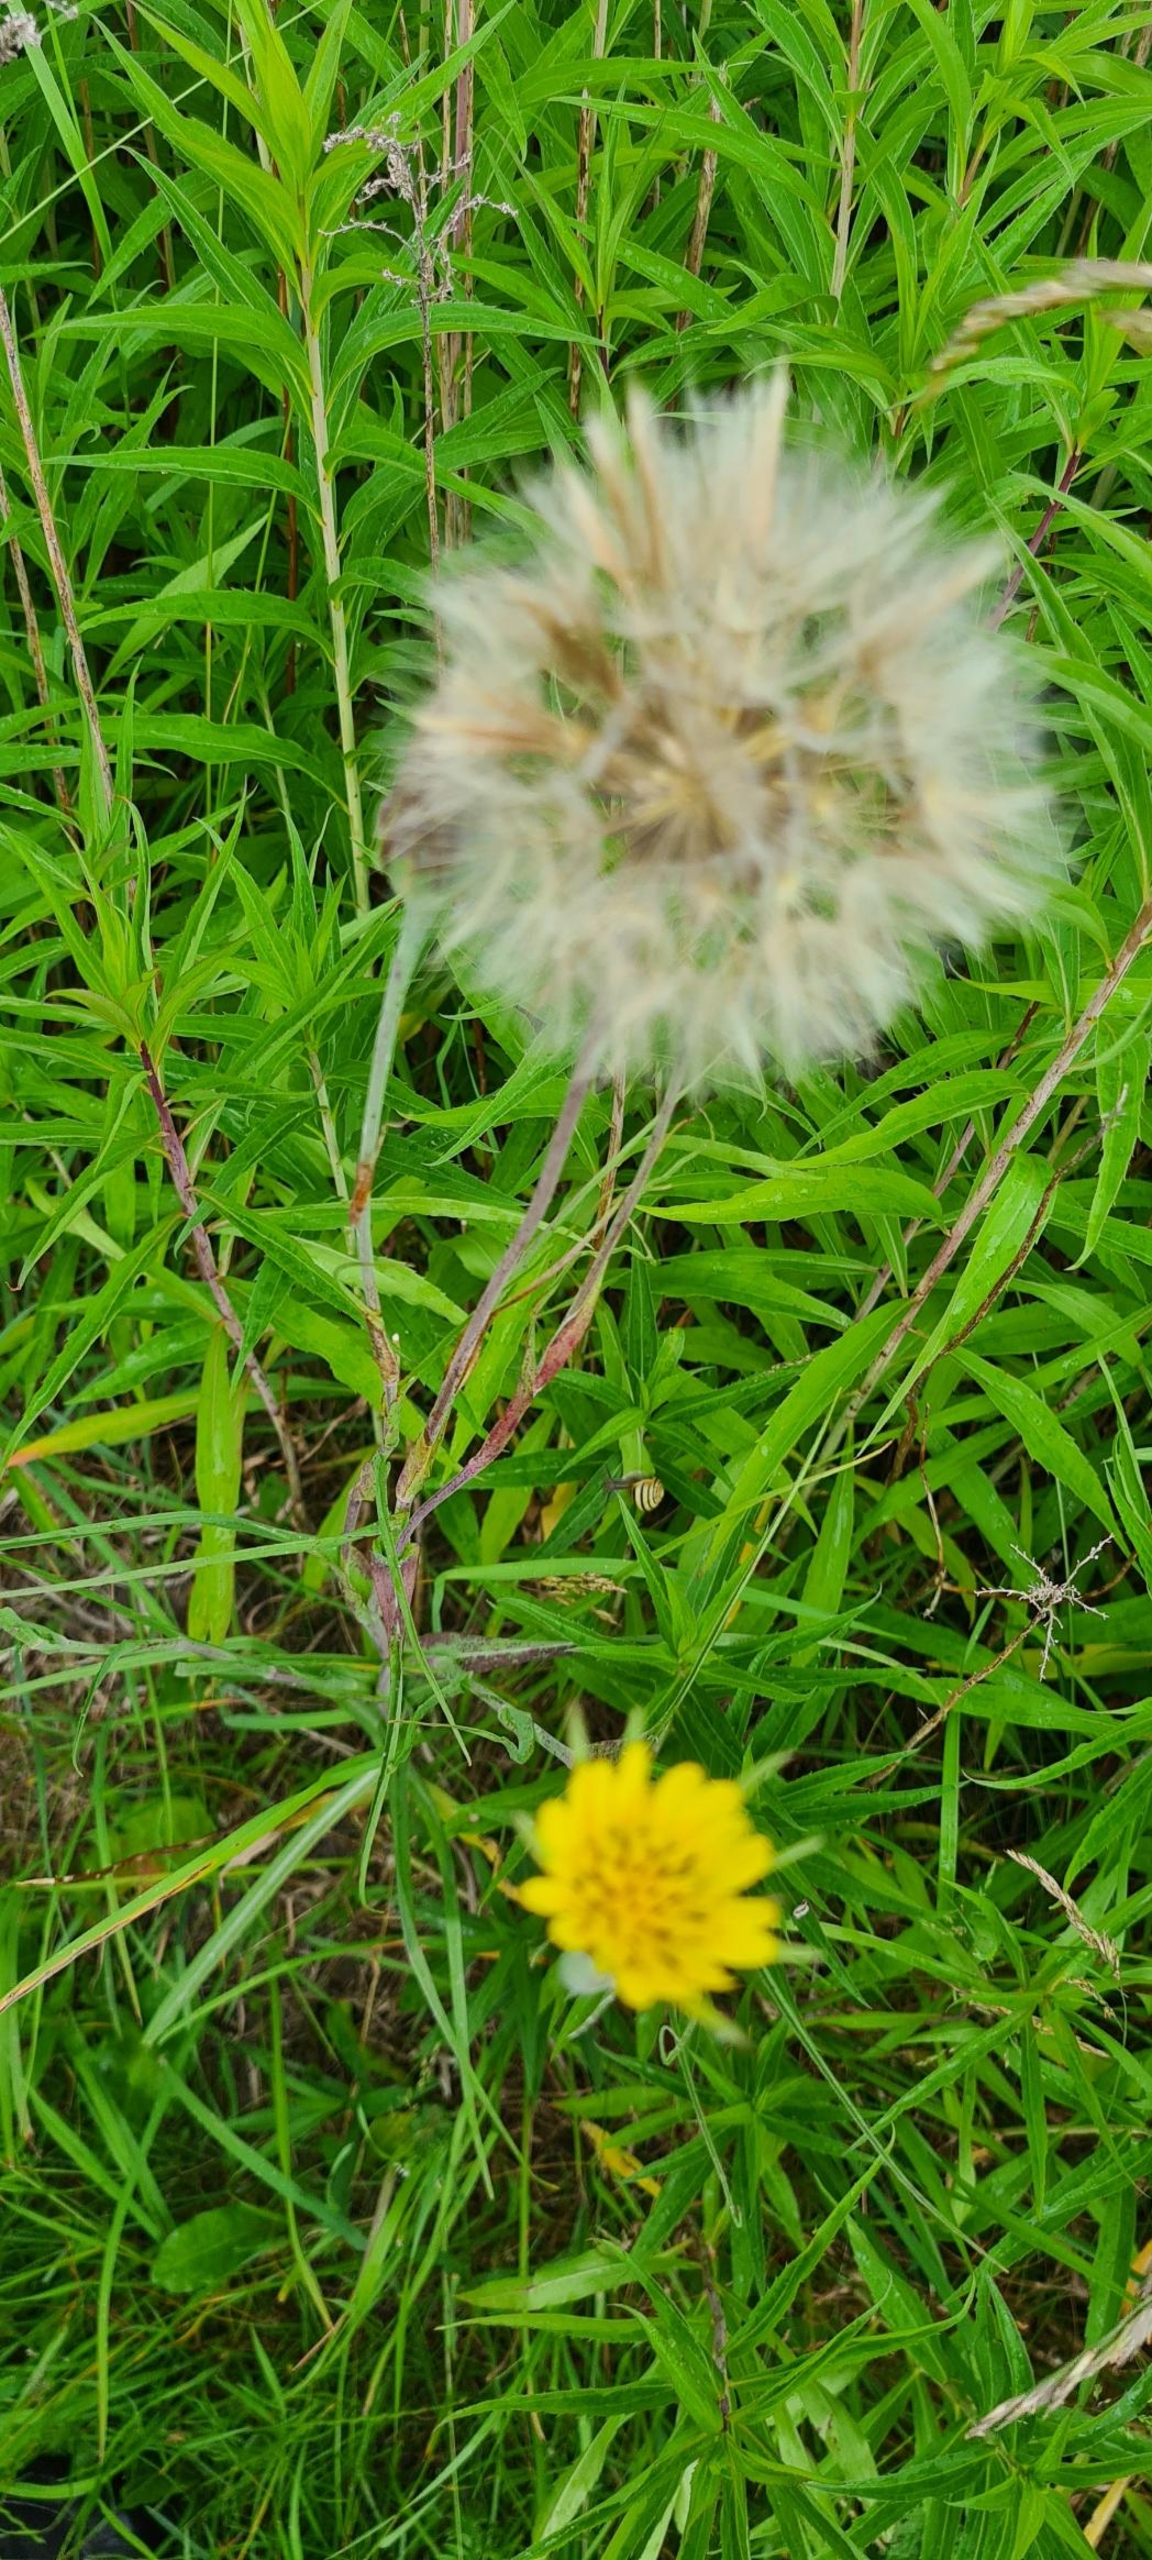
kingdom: Plantae
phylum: Tracheophyta
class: Magnoliopsida
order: Asterales
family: Asteraceae
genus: Tragopogon
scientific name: Tragopogon minor
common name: Småkronet gedeskæg
